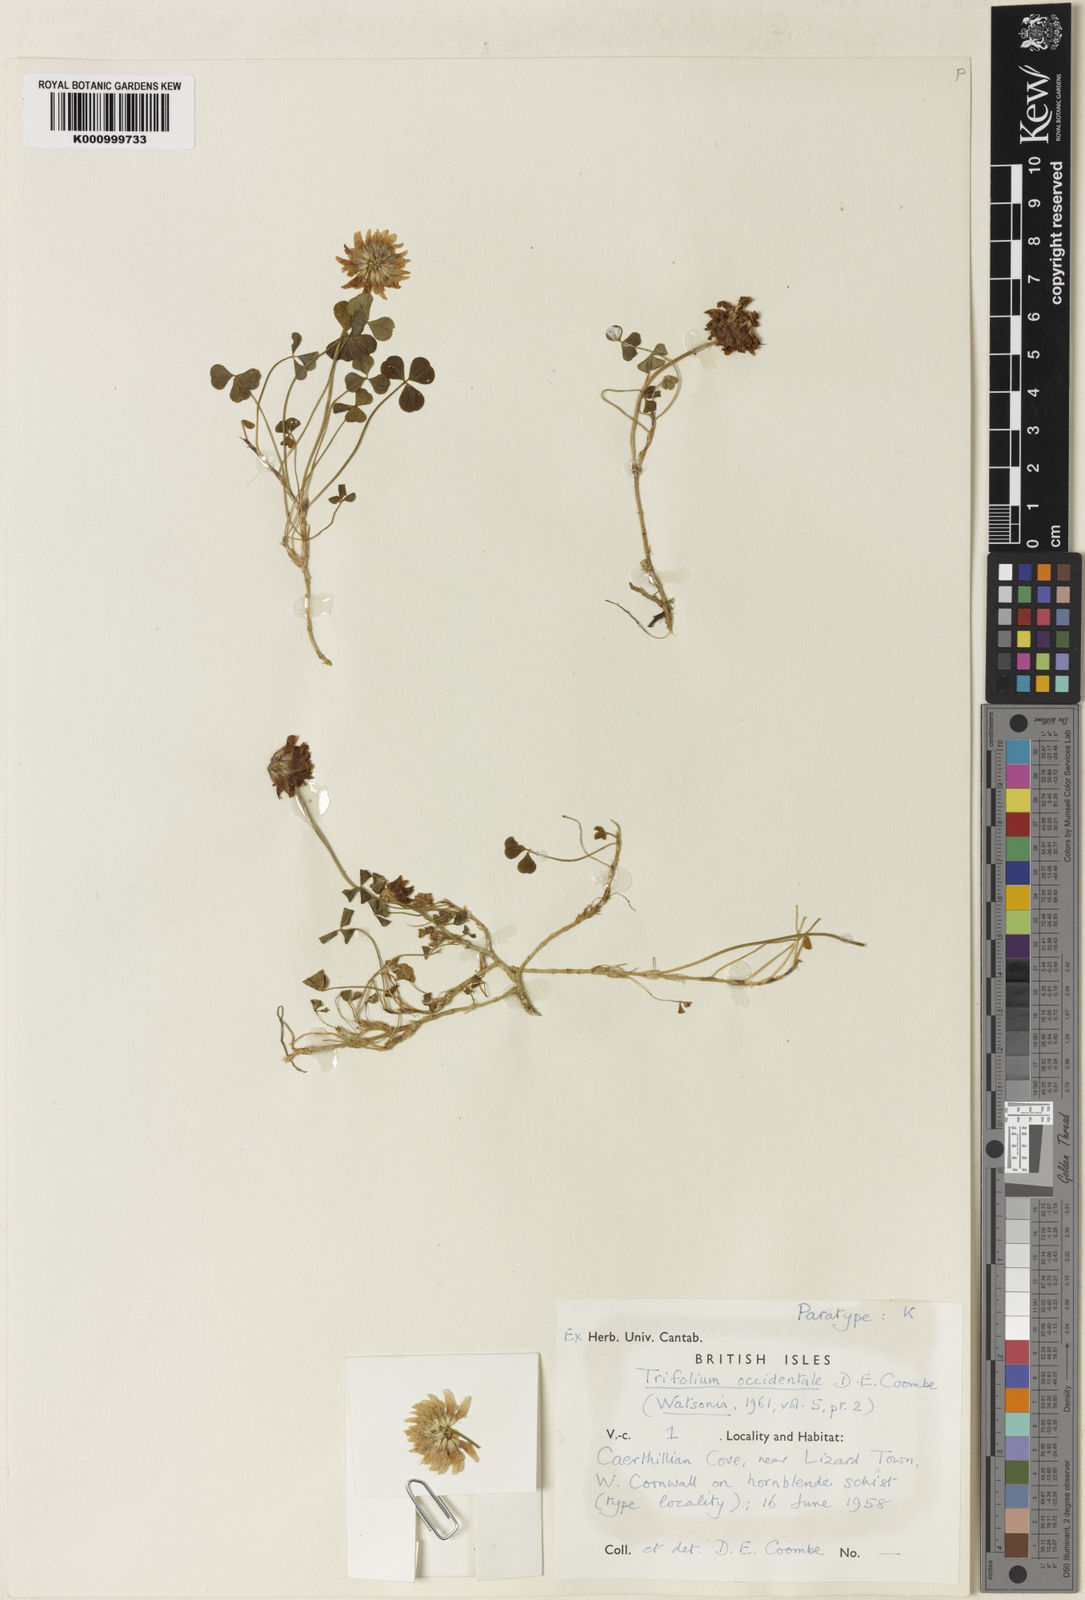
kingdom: Plantae
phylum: Tracheophyta
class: Magnoliopsida
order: Fabales
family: Fabaceae
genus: Trifolium
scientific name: Trifolium occidentale
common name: Western clover
